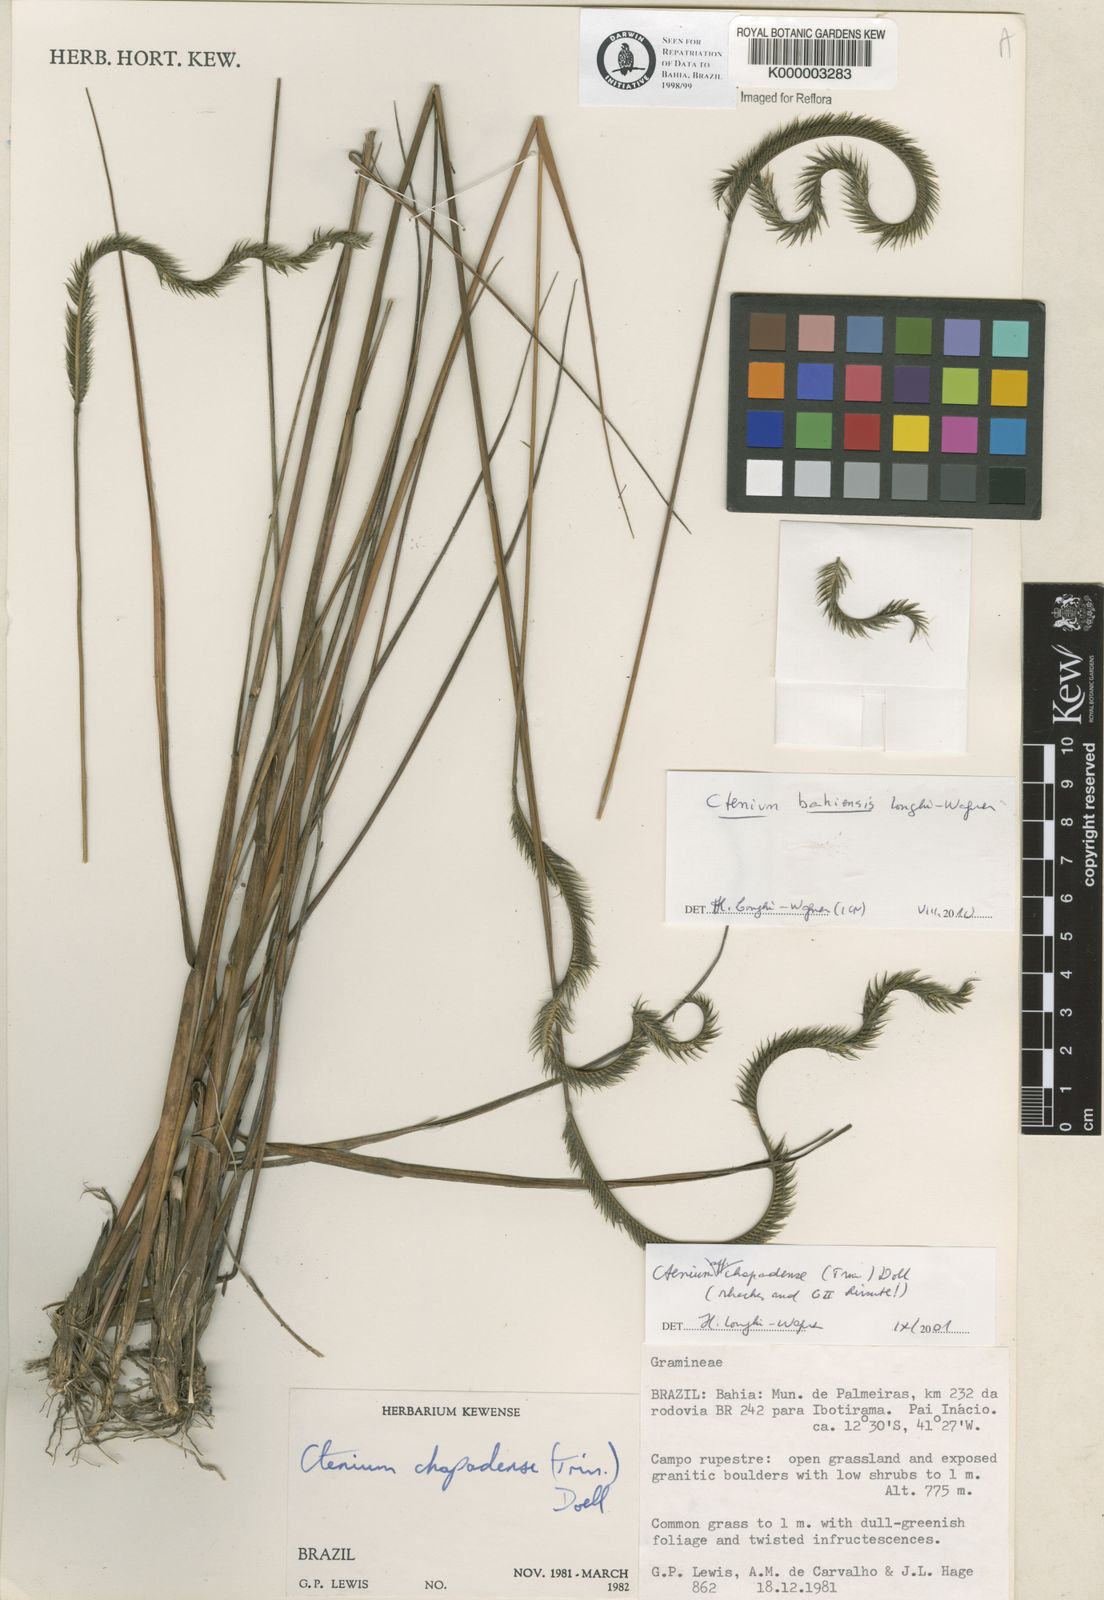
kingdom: Plantae
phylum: Tracheophyta
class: Liliopsida
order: Poales
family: Poaceae
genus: Ctenium
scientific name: Ctenium
